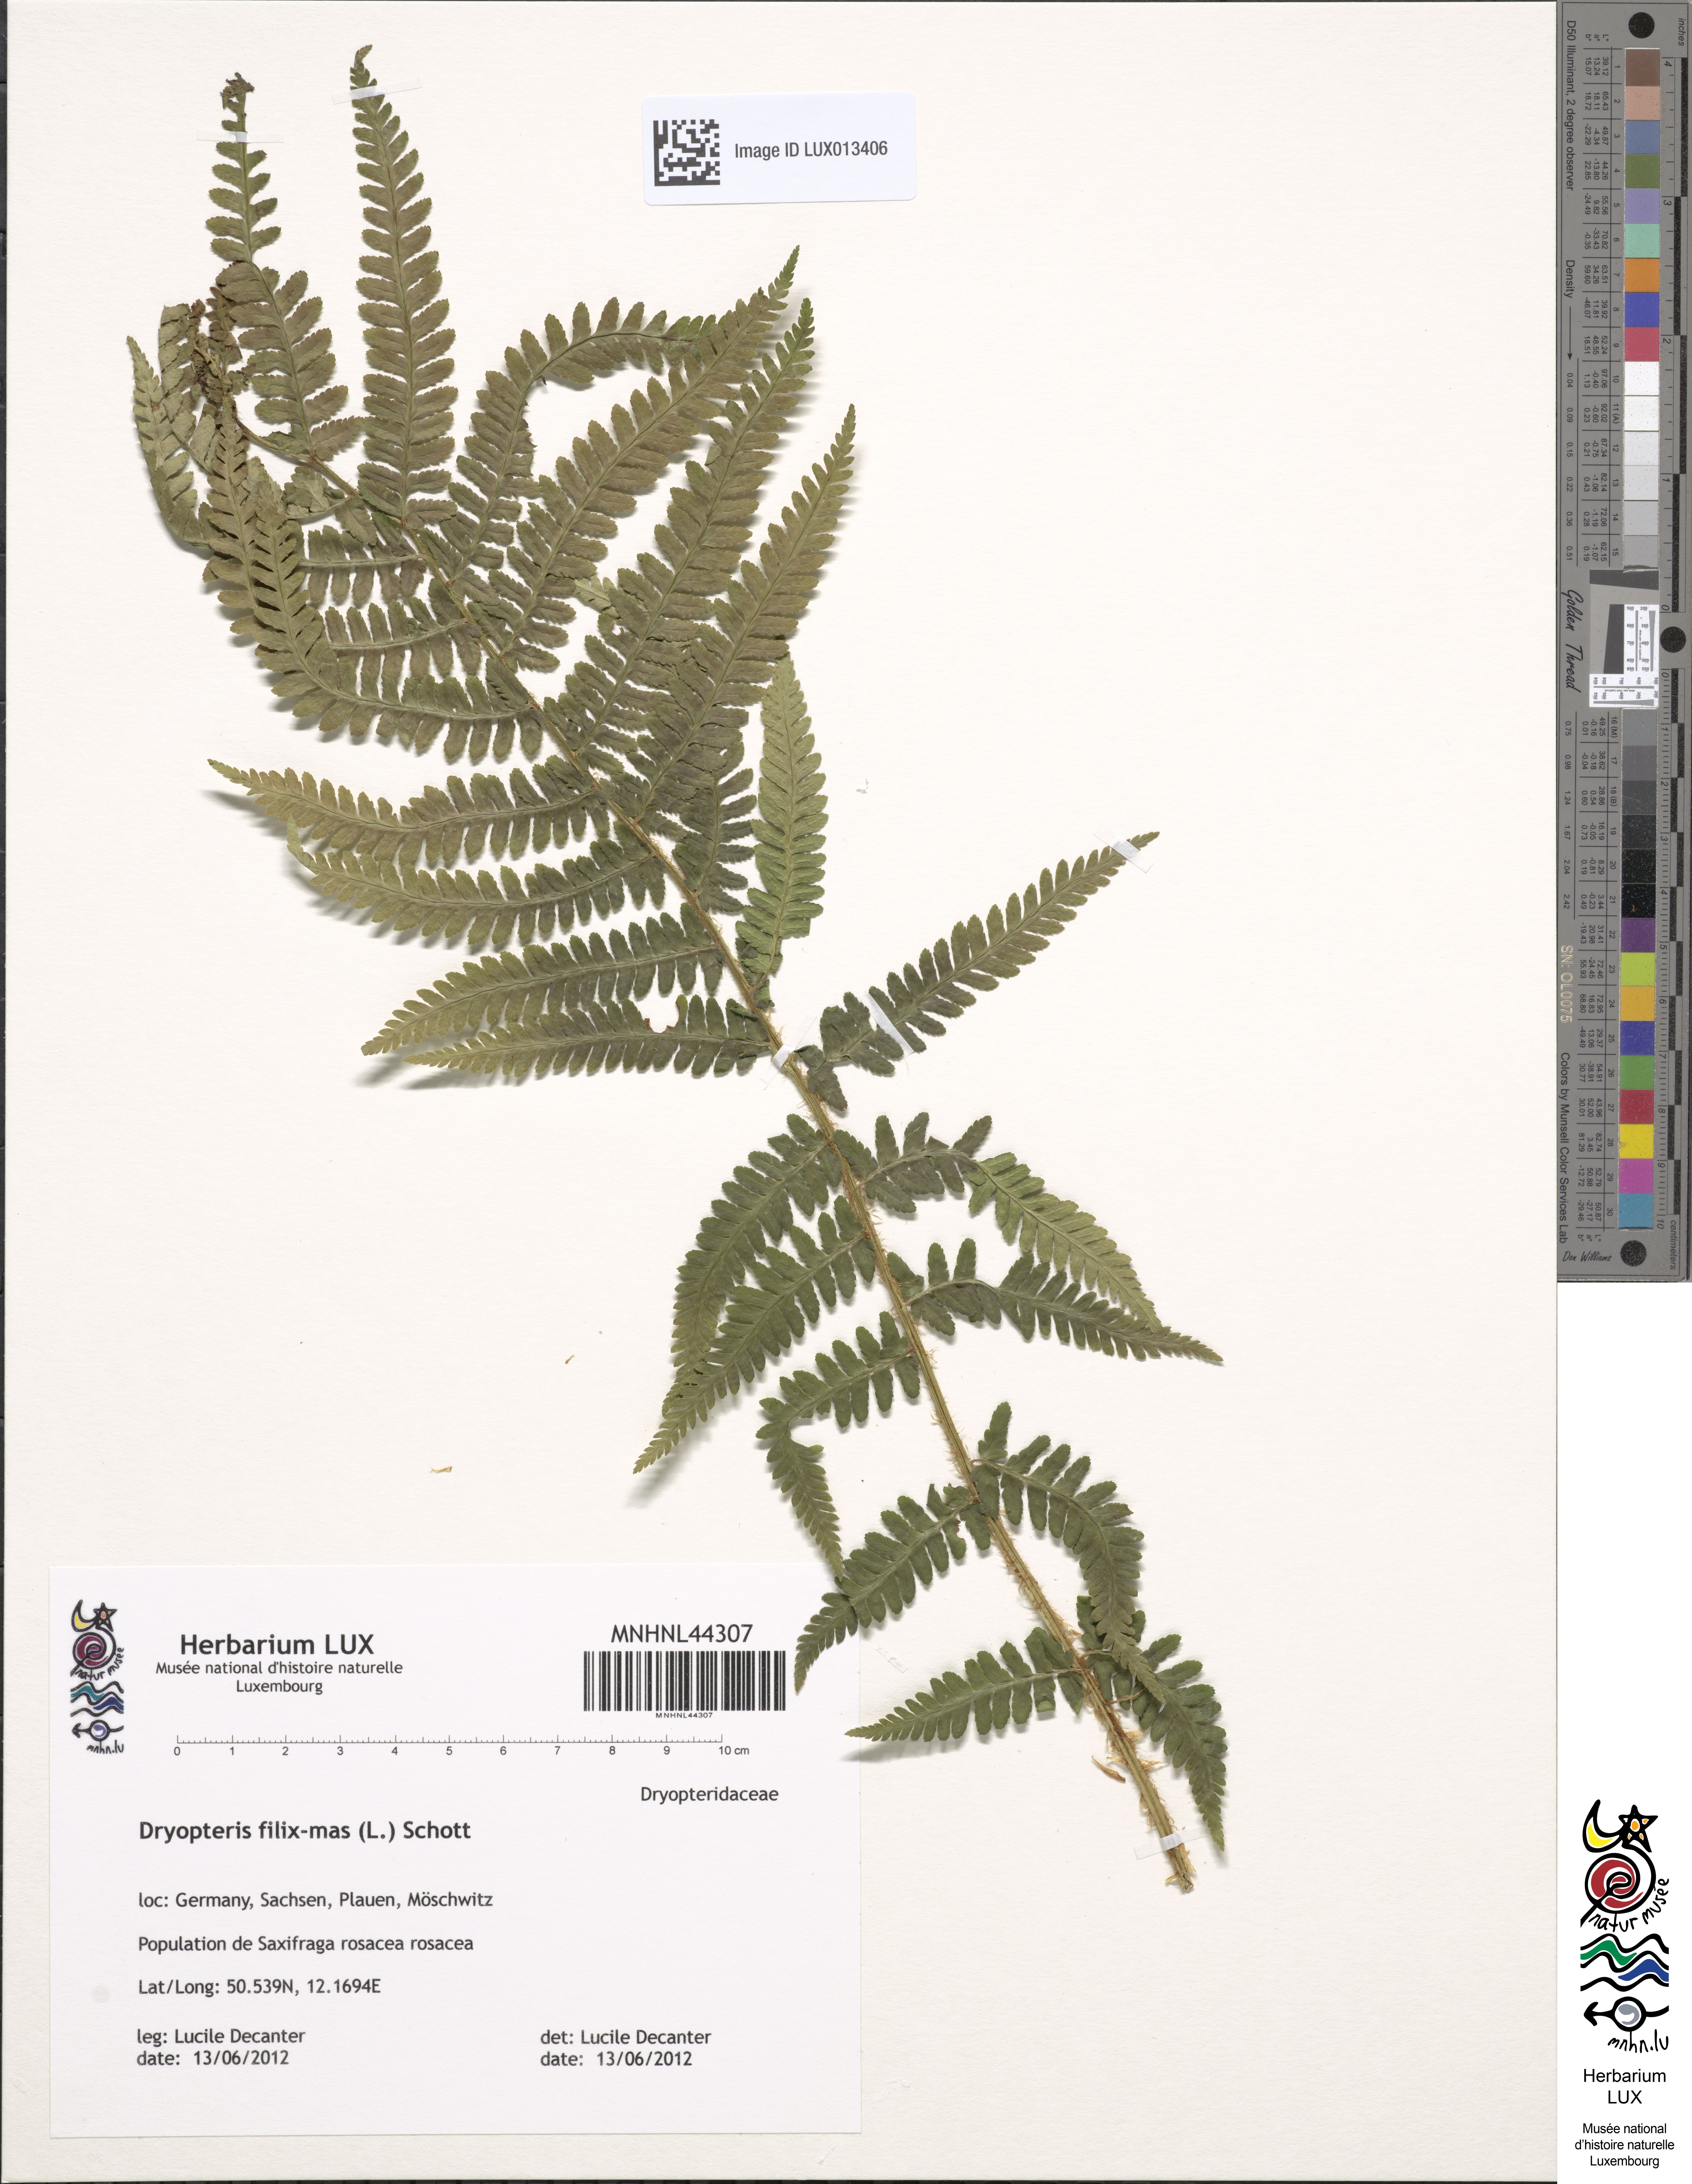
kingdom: Plantae
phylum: Tracheophyta
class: Polypodiopsida
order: Polypodiales
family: Dryopteridaceae
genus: Dryopteris
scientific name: Dryopteris filix-mas
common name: Male fern
